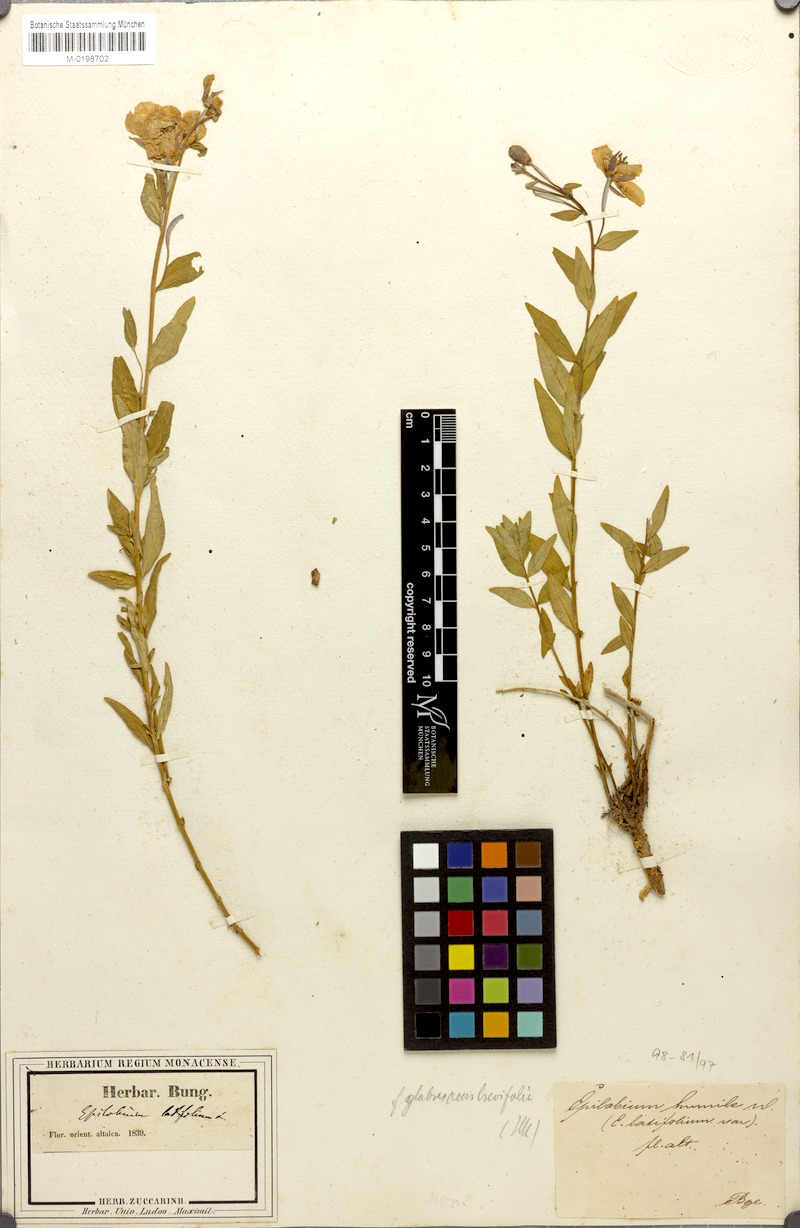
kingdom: Plantae
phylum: Tracheophyta
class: Magnoliopsida
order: Myrtales
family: Onagraceae
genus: Chamaenerion
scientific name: Chamaenerion latifolium
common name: Dwarf fireweed
